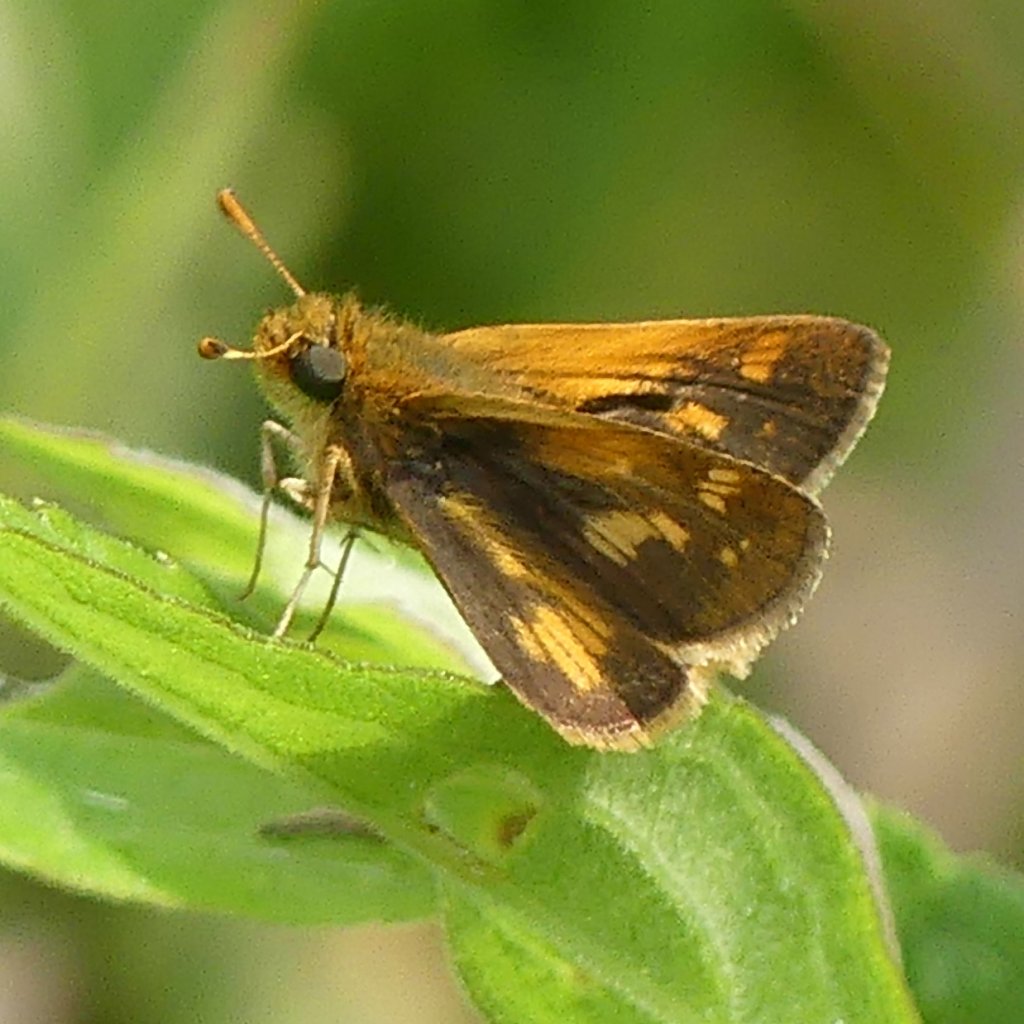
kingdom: Animalia
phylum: Arthropoda
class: Insecta
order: Lepidoptera
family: Hesperiidae
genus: Polites
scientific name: Polites coras
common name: Peck's Skipper
